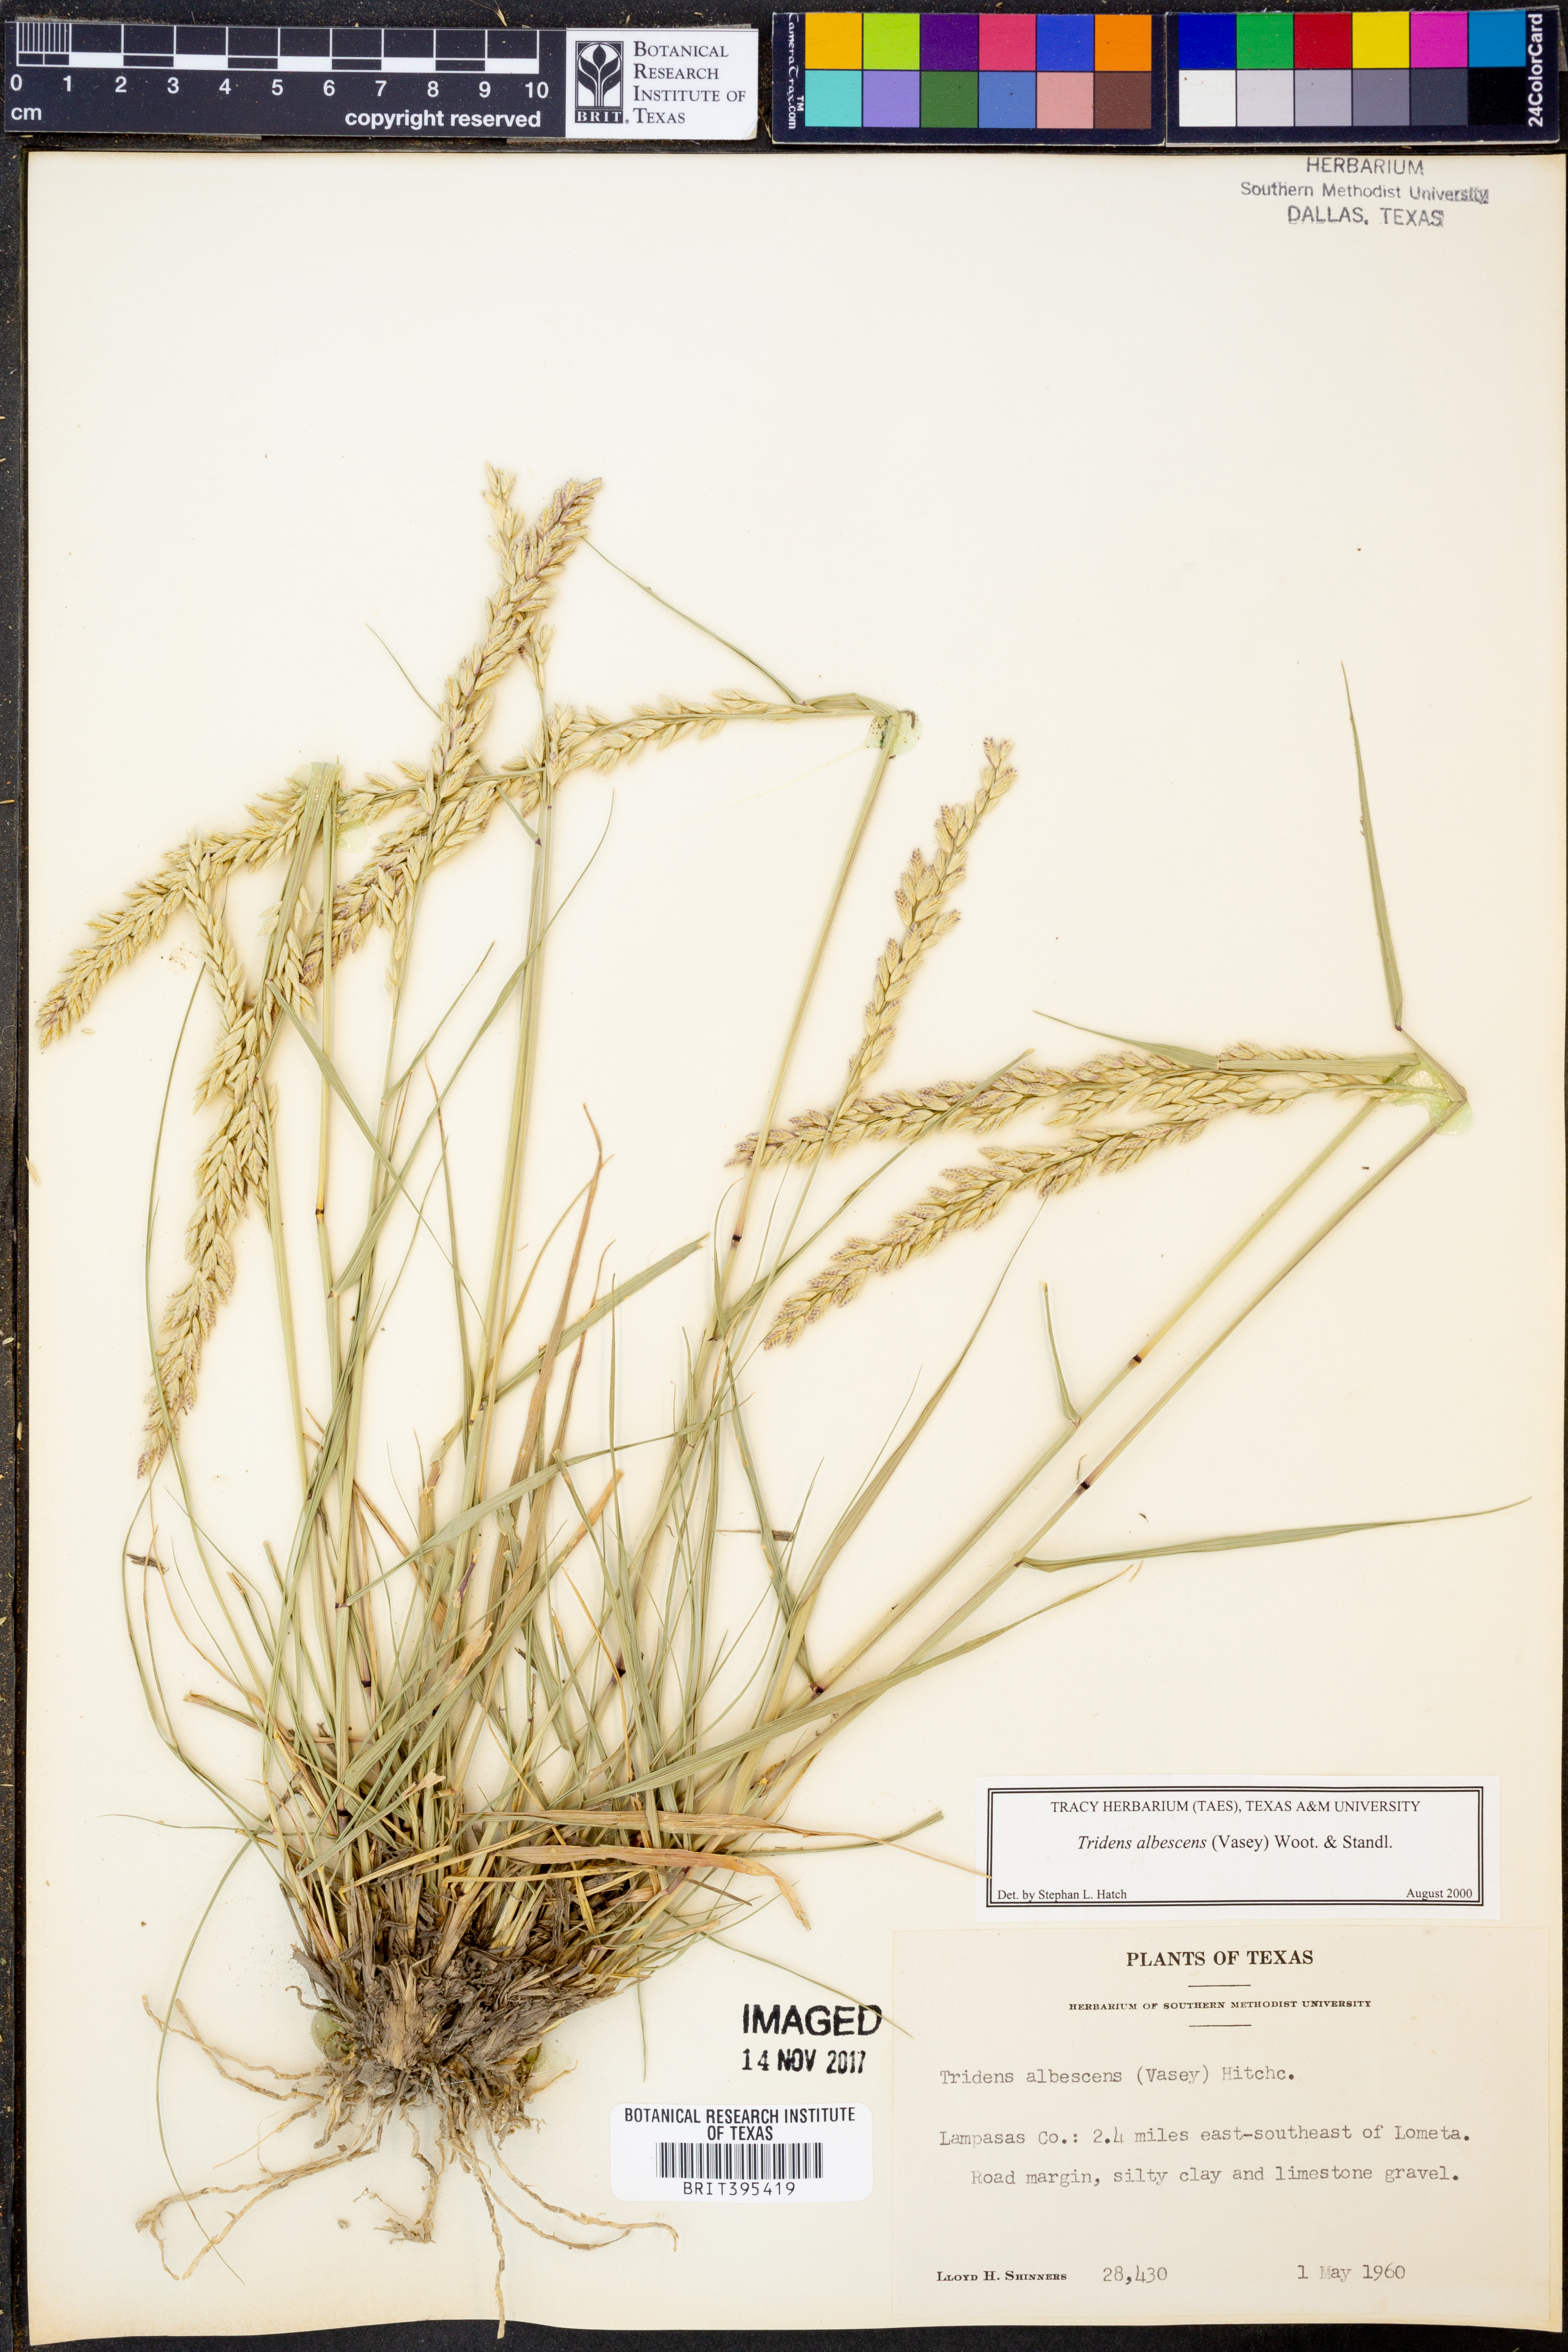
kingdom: Plantae
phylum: Tracheophyta
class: Liliopsida
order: Poales
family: Poaceae
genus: Tridens
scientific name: Tridens albescens
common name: White tridens
